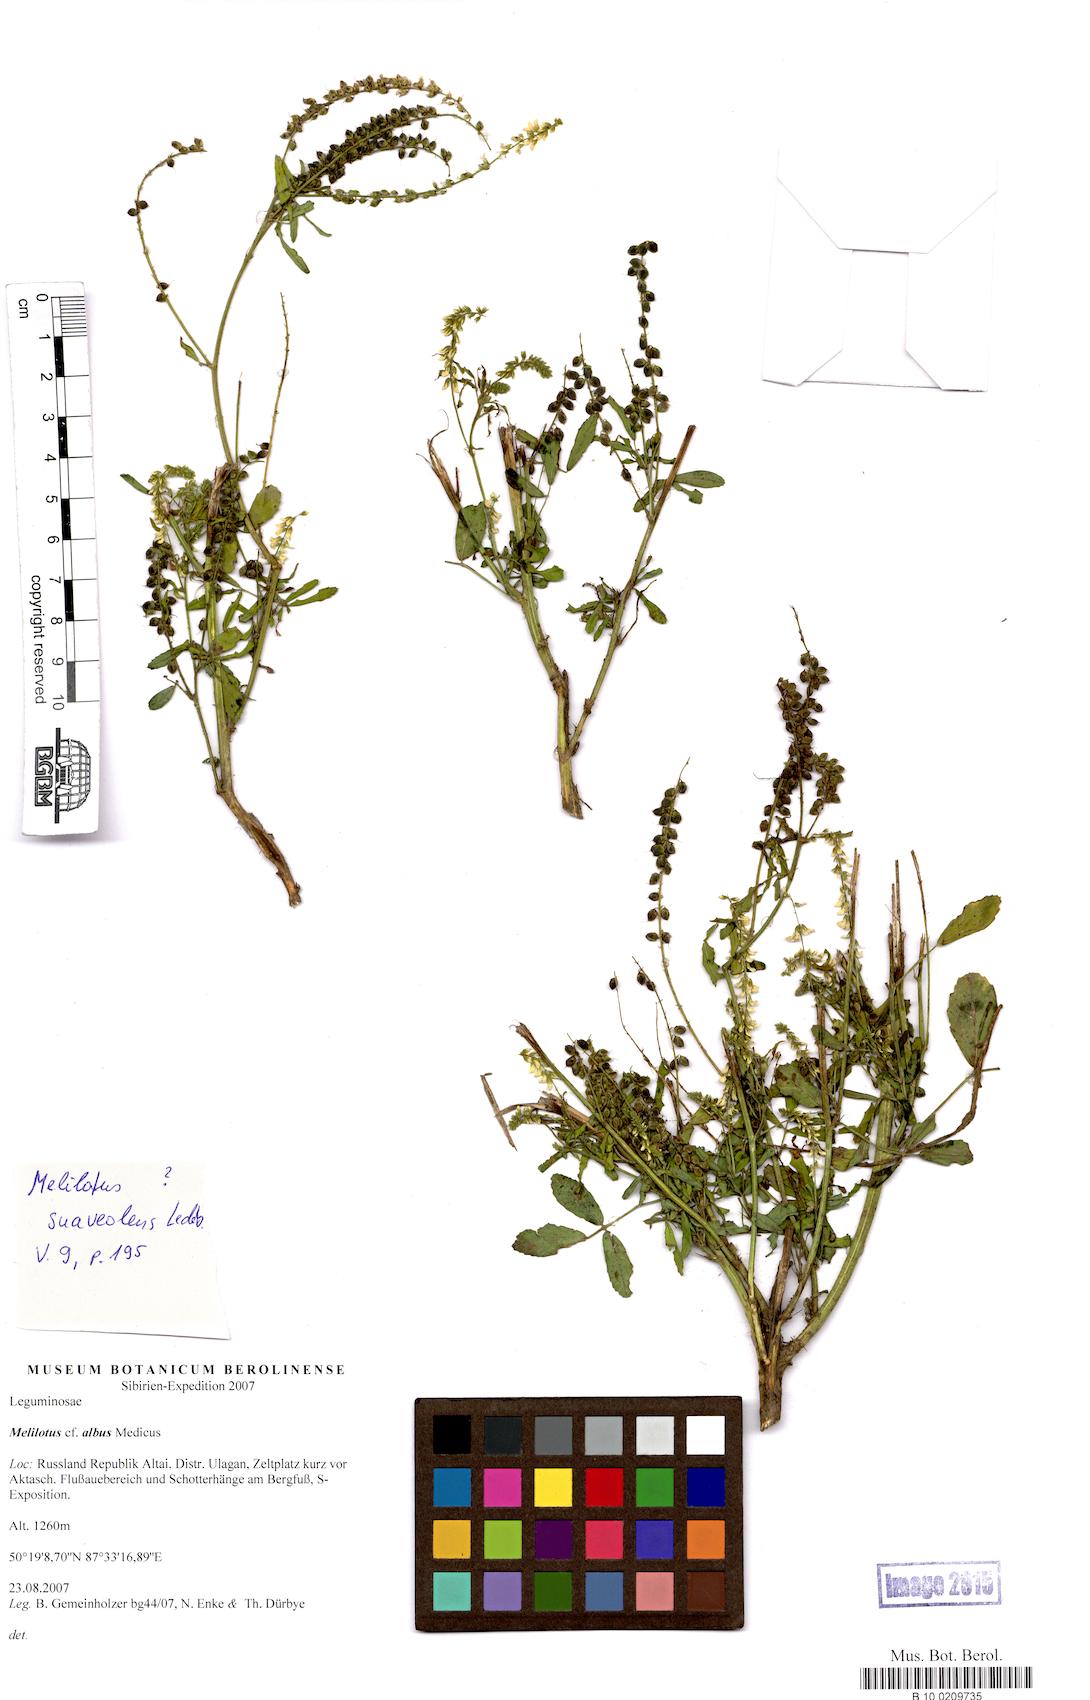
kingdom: Plantae
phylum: Tracheophyta
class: Magnoliopsida
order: Fabales
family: Fabaceae
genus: Melilotus
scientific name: Melilotus
